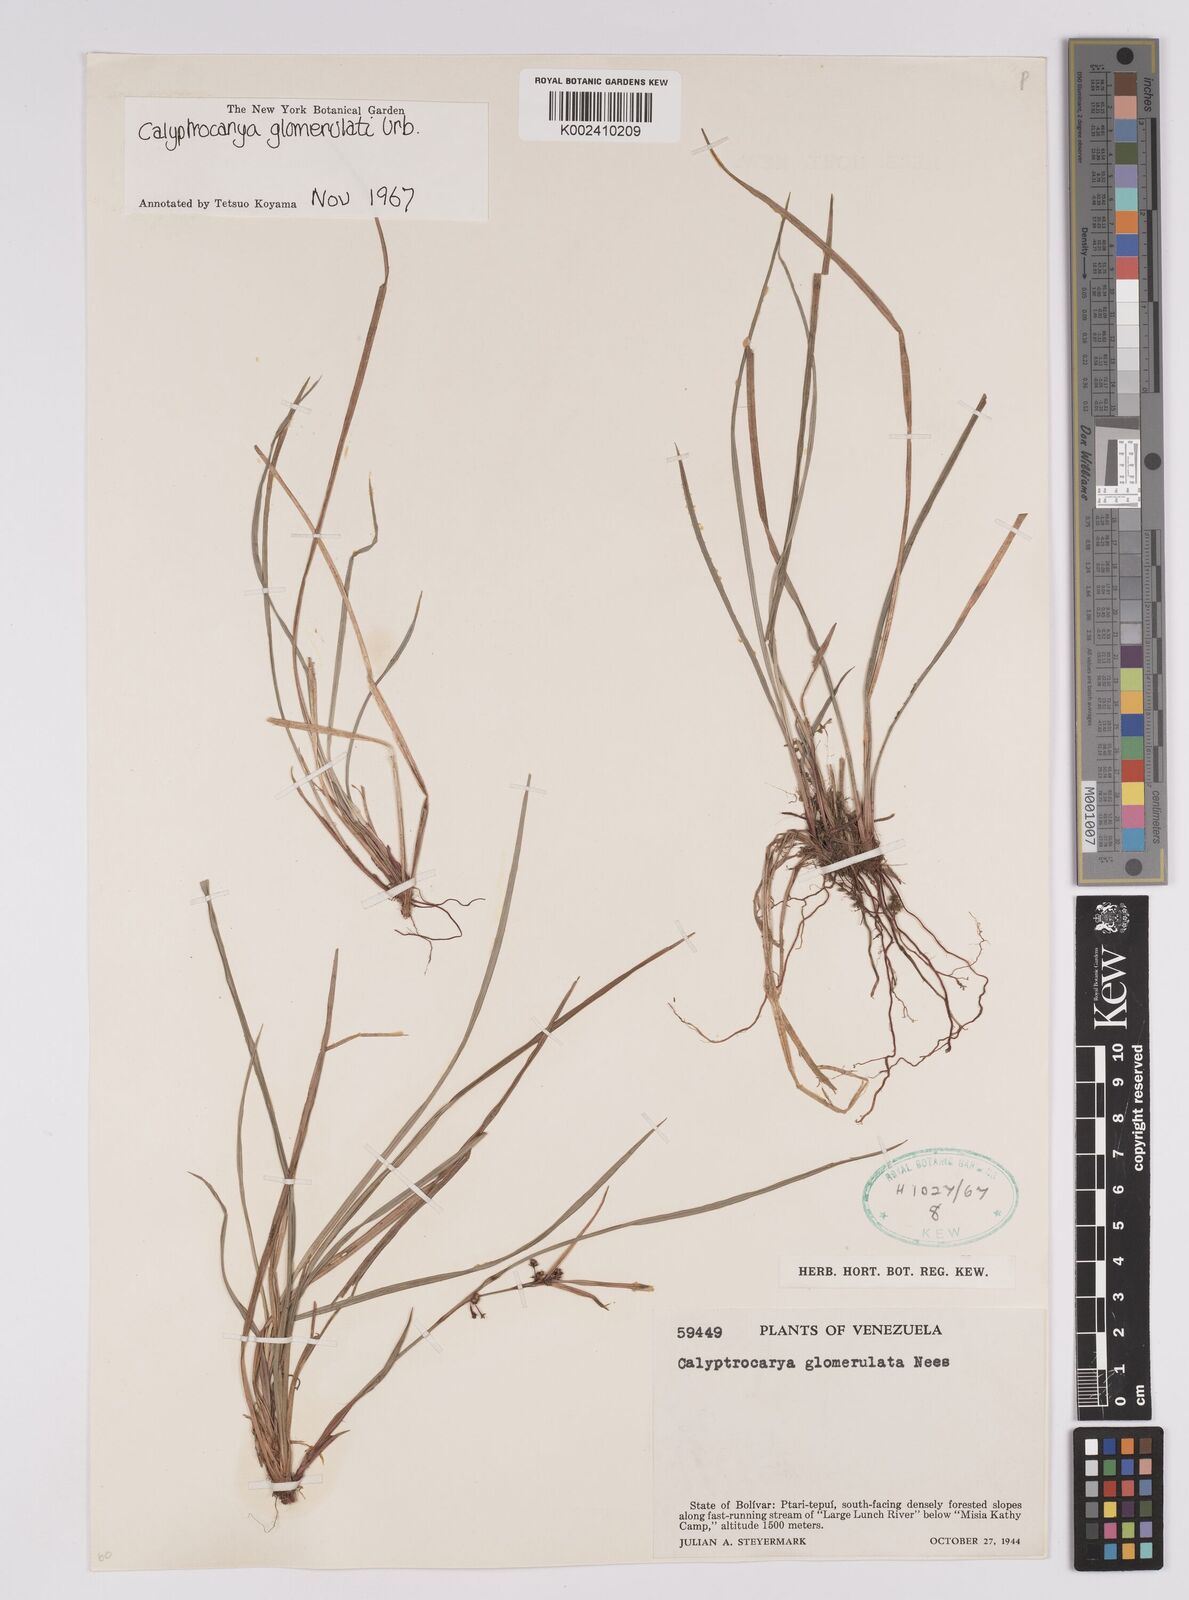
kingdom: Plantae
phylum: Tracheophyta
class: Liliopsida
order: Poales
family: Cyperaceae
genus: Calyptrocarya
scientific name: Calyptrocarya glomerulata
